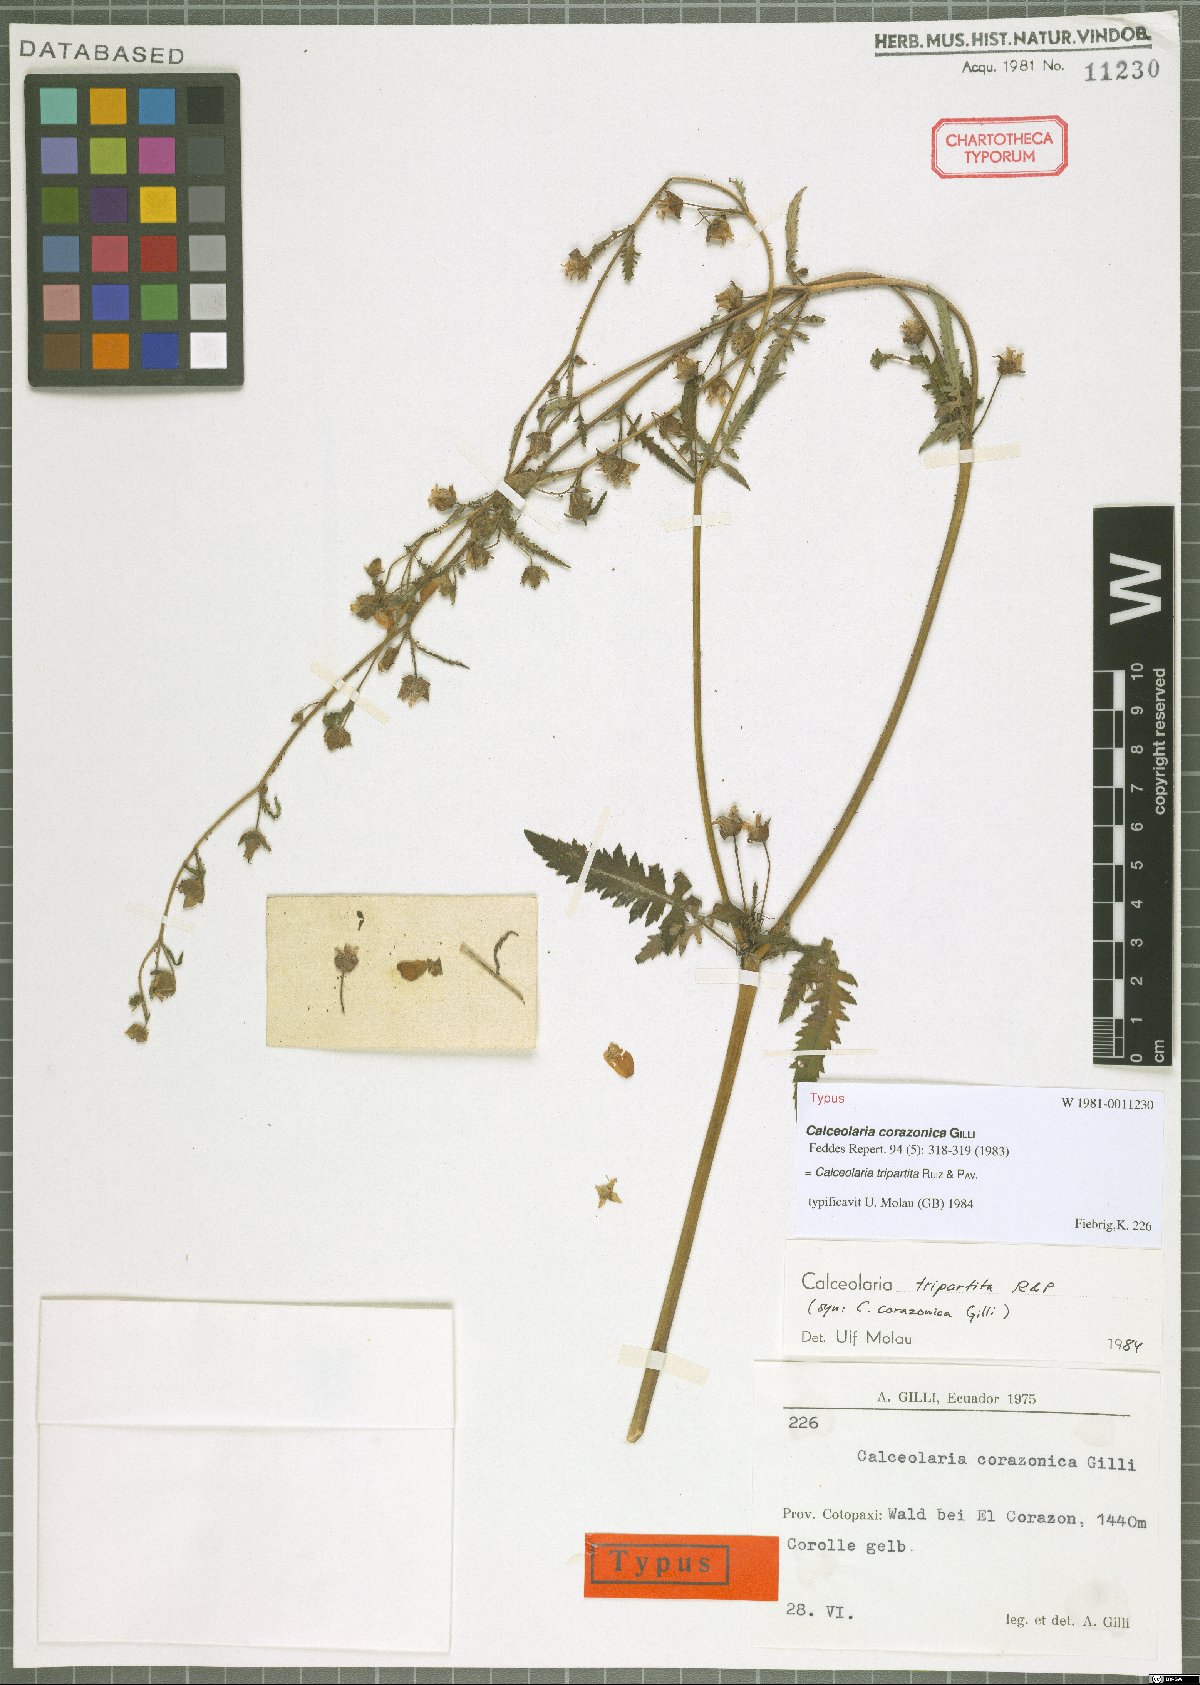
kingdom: Plantae
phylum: Tracheophyta
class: Magnoliopsida
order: Lamiales
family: Calceolariaceae
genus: Calceolaria
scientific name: Calceolaria tripartita
